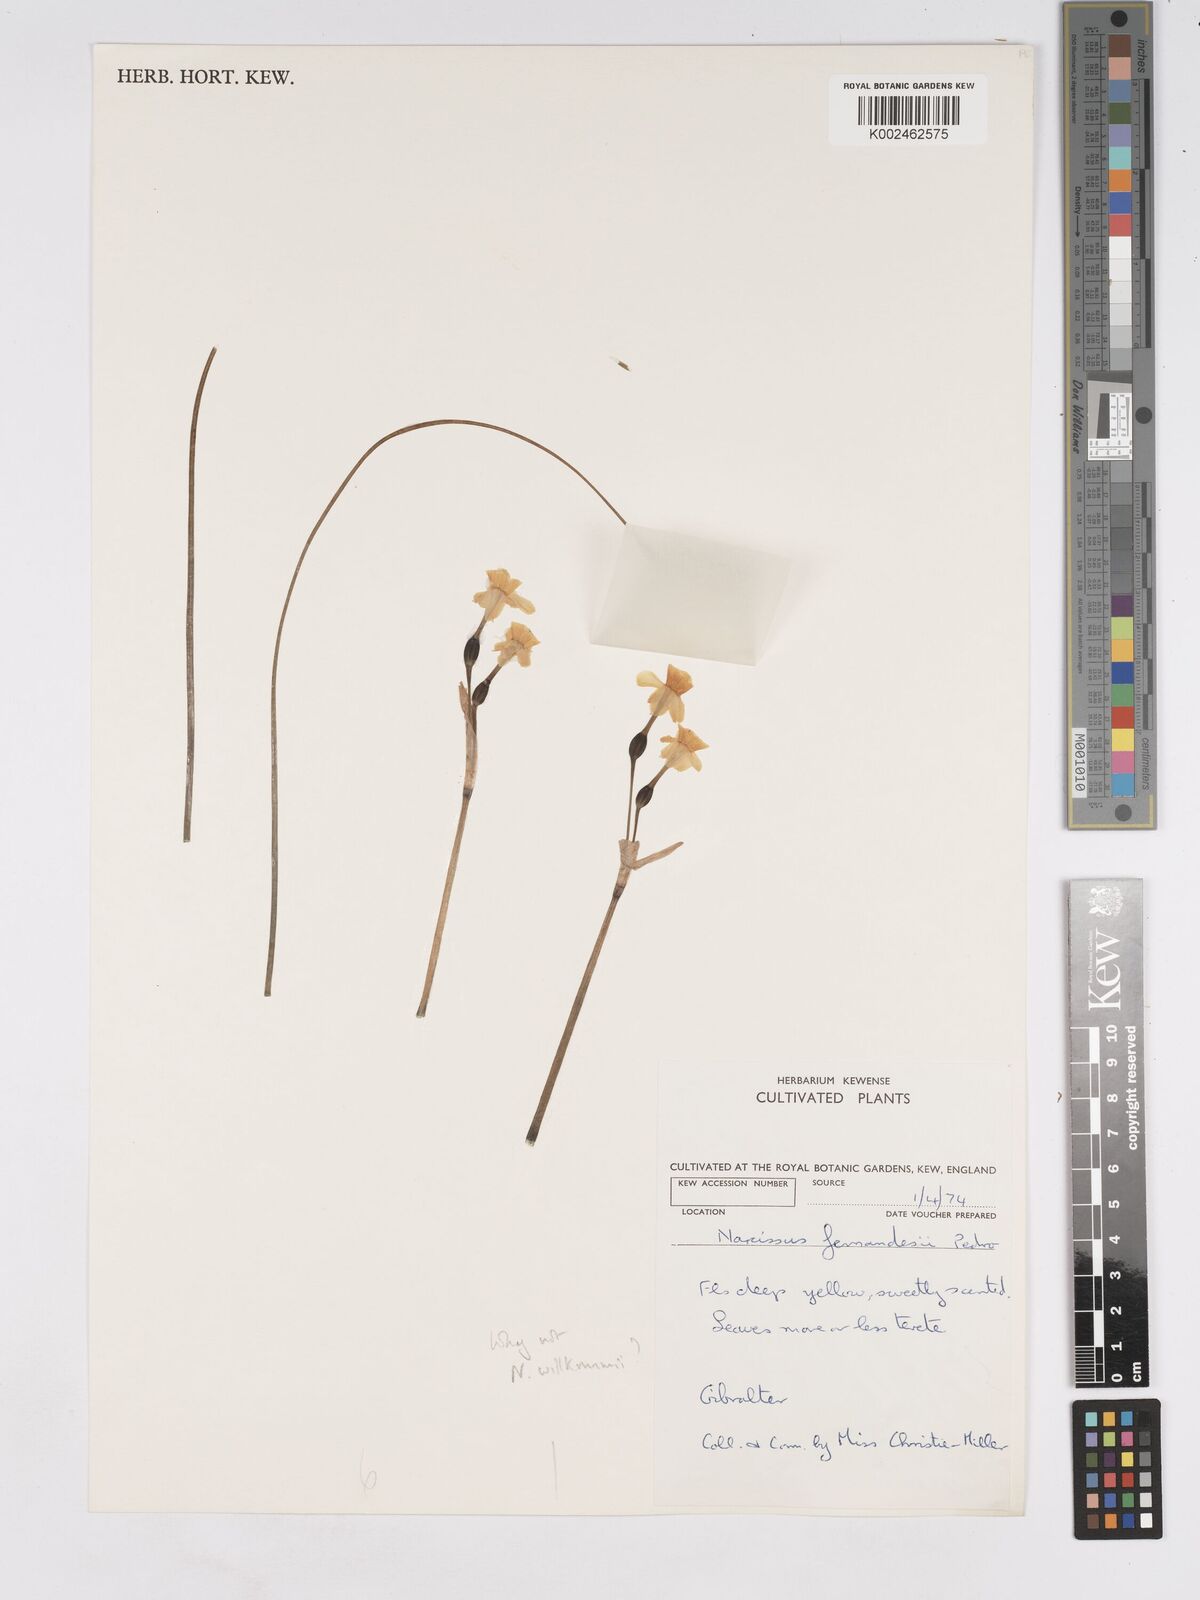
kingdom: Plantae
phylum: Tracheophyta
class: Liliopsida
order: Asparagales
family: Amaryllidaceae
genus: Narcissus
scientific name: Narcissus assoanus
